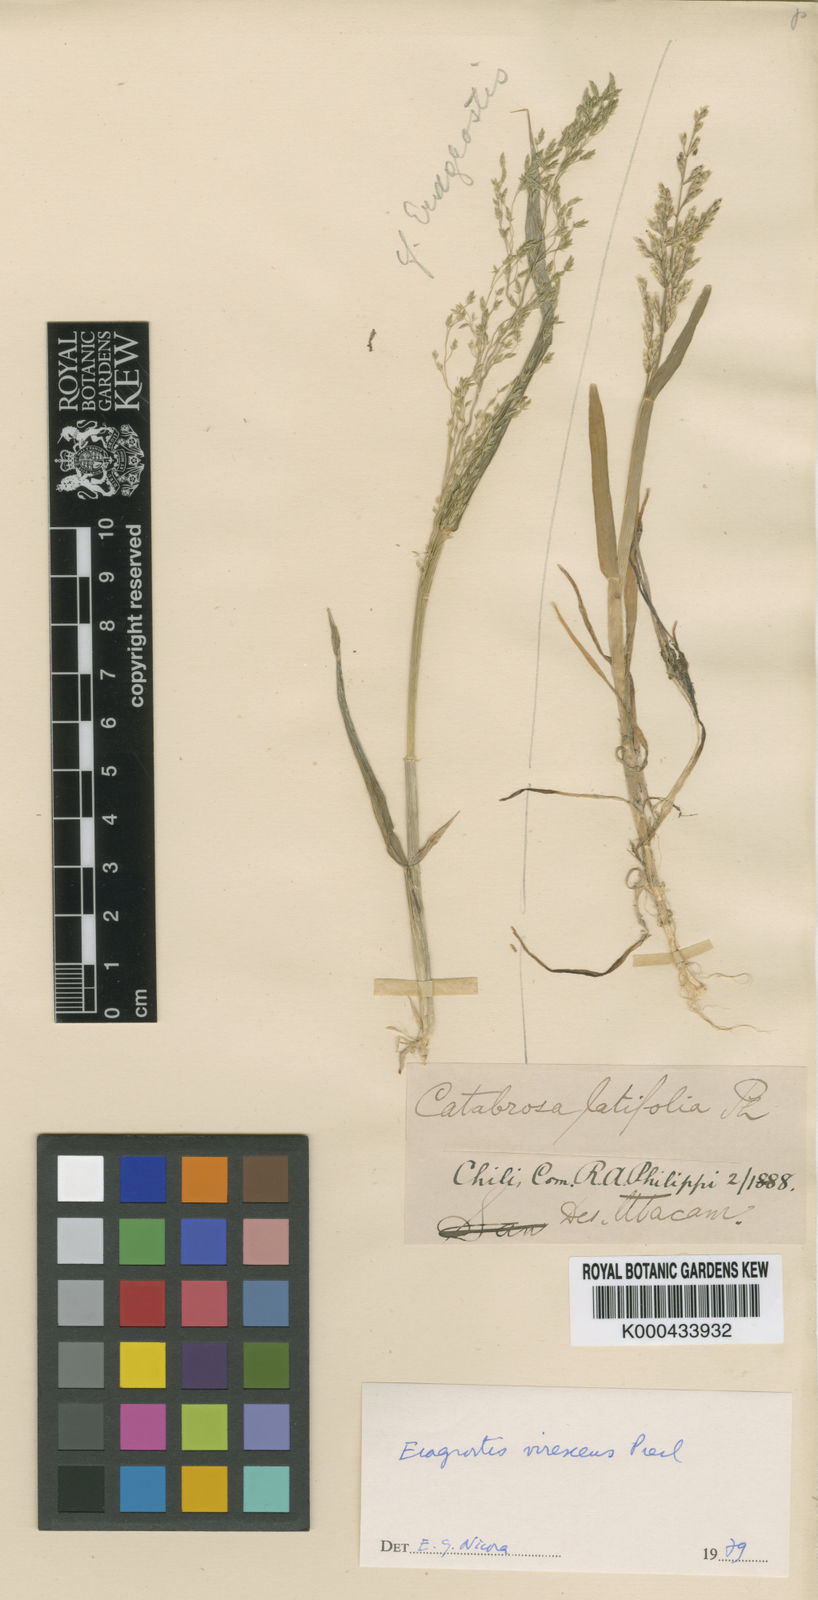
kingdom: Plantae
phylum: Tracheophyta
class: Liliopsida
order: Poales
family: Poaceae
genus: Catabrosa
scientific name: Catabrosa werdermannii
